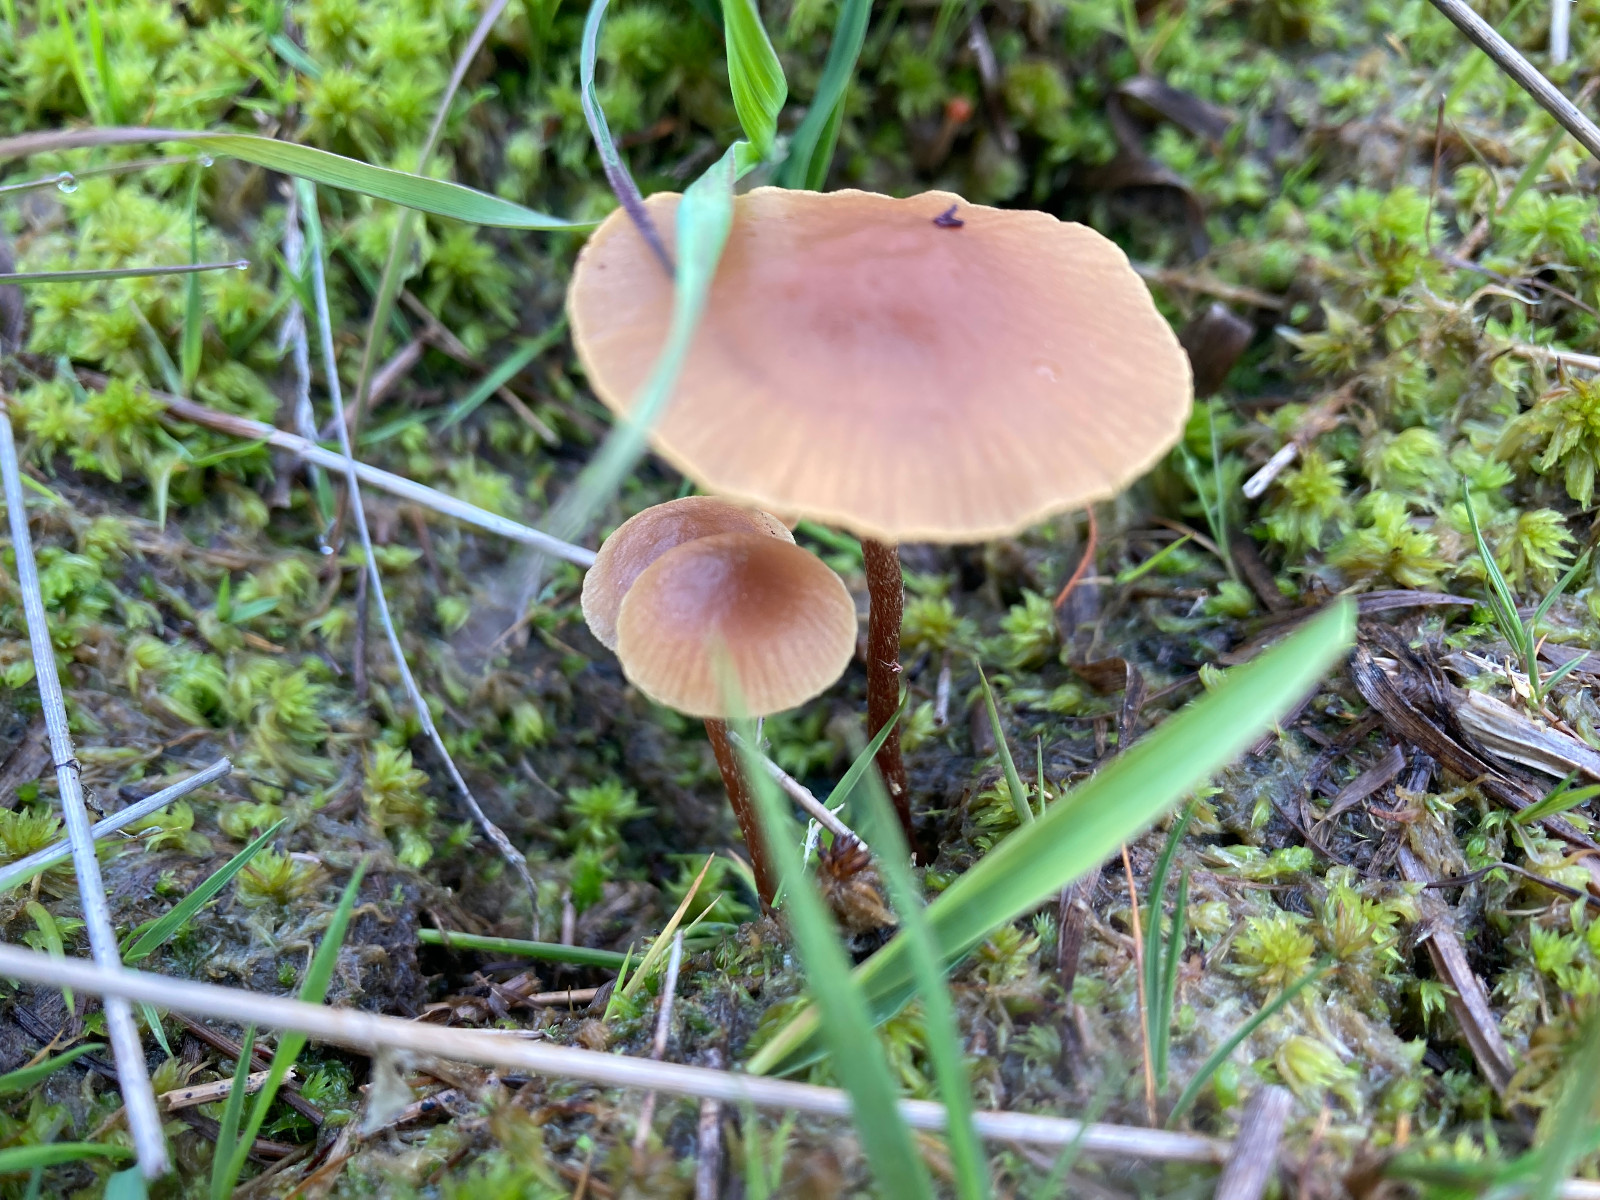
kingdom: Fungi
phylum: Basidiomycota
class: Agaricomycetes
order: Agaricales
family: Strophariaceae
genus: Hypholoma
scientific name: Hypholoma
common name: svovlhat
